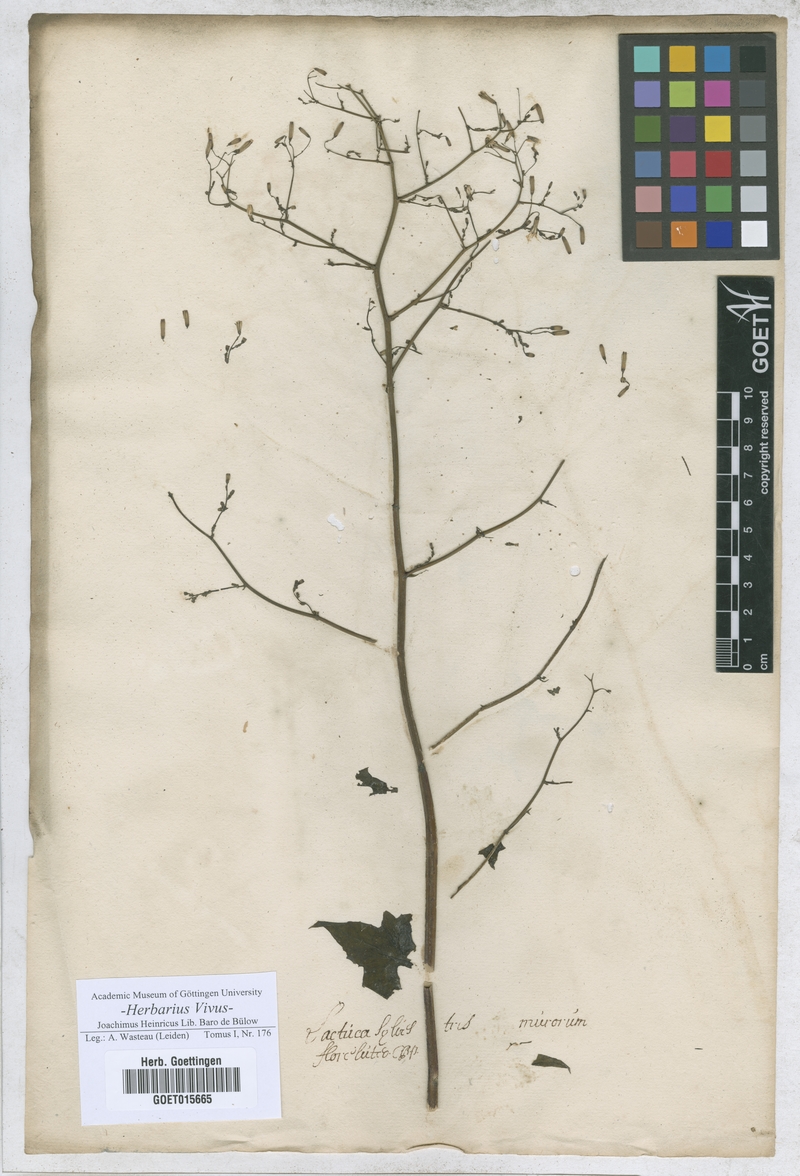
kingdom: Plantae
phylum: Tracheophyta
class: Magnoliopsida
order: Asterales
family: Asteraceae
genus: Lactuca
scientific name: Lactuca
